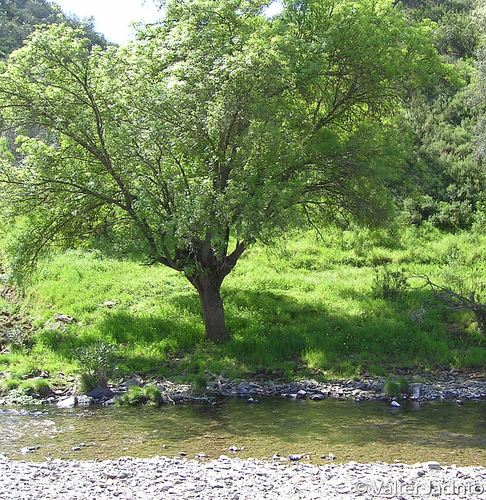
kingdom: Plantae
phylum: Tracheophyta
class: Magnoliopsida
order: Lamiales
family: Oleaceae
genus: Fraxinus
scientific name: Fraxinus angustifolia
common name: Narrow-leafed ash
